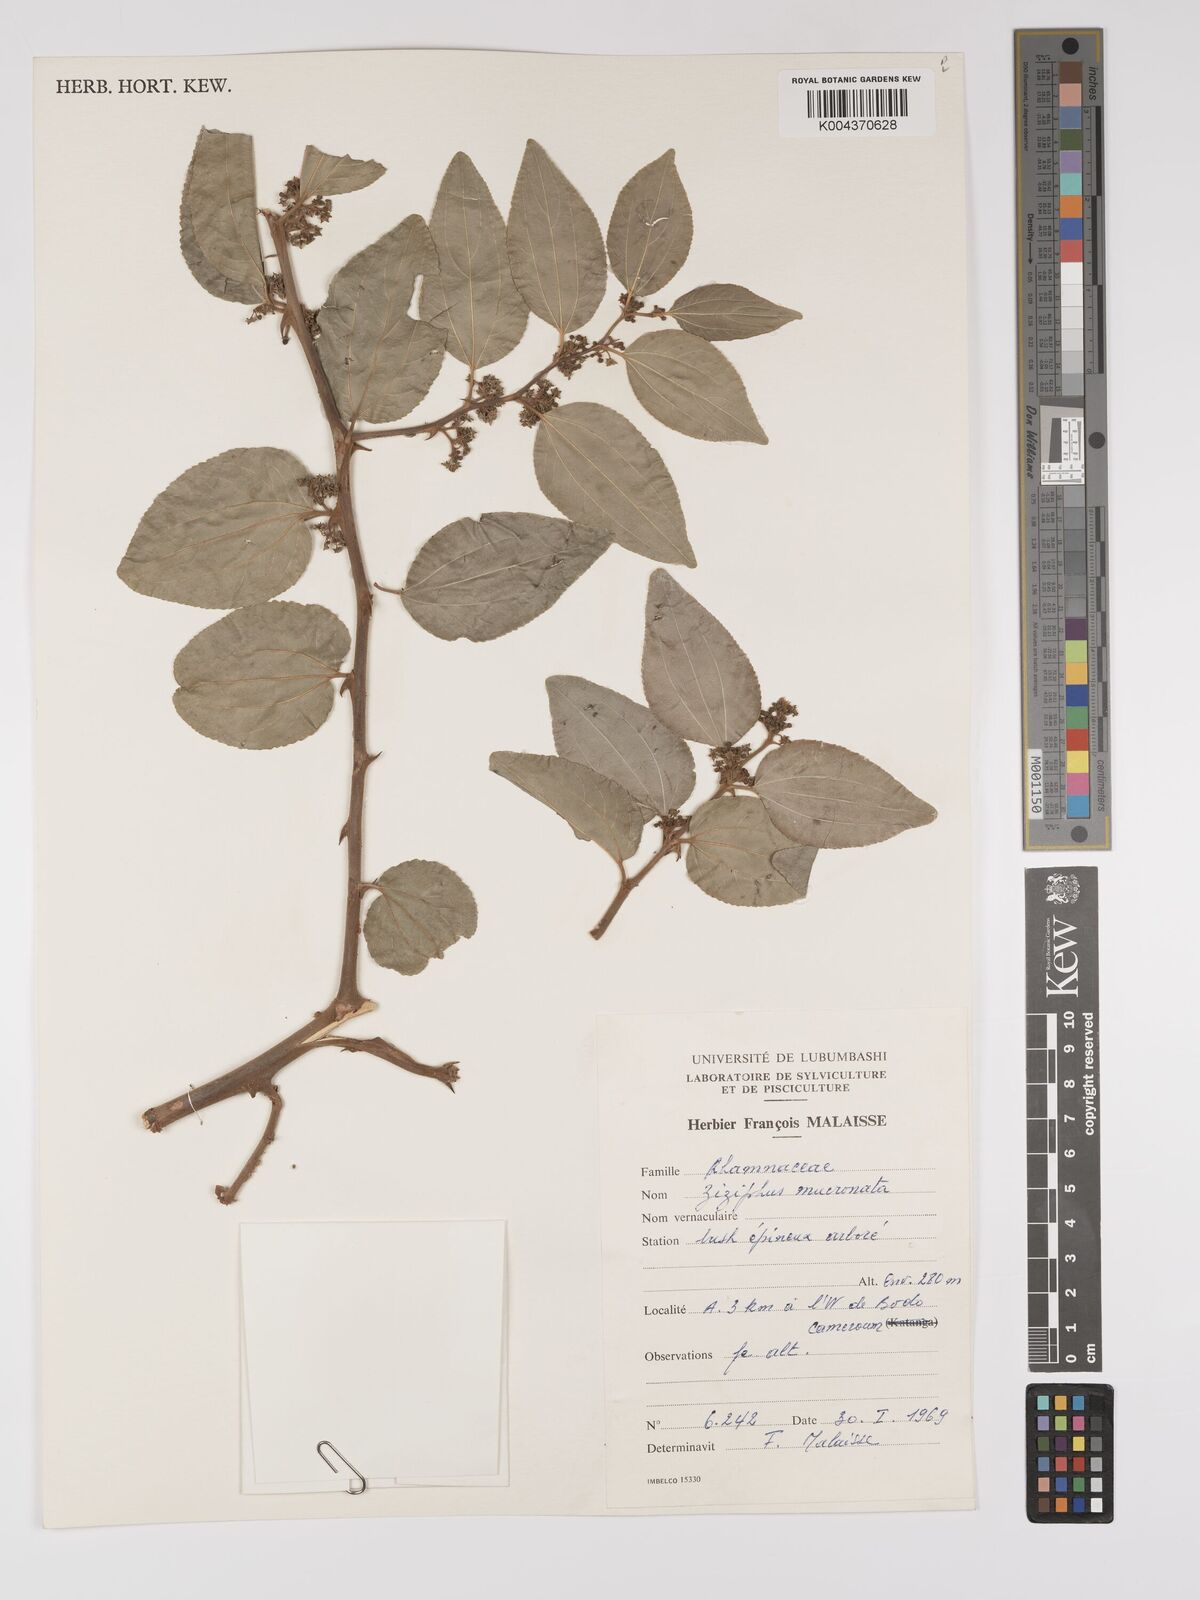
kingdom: Plantae
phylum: Tracheophyta
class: Magnoliopsida
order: Rosales
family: Rhamnaceae
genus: Ziziphus
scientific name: Ziziphus mucronata
